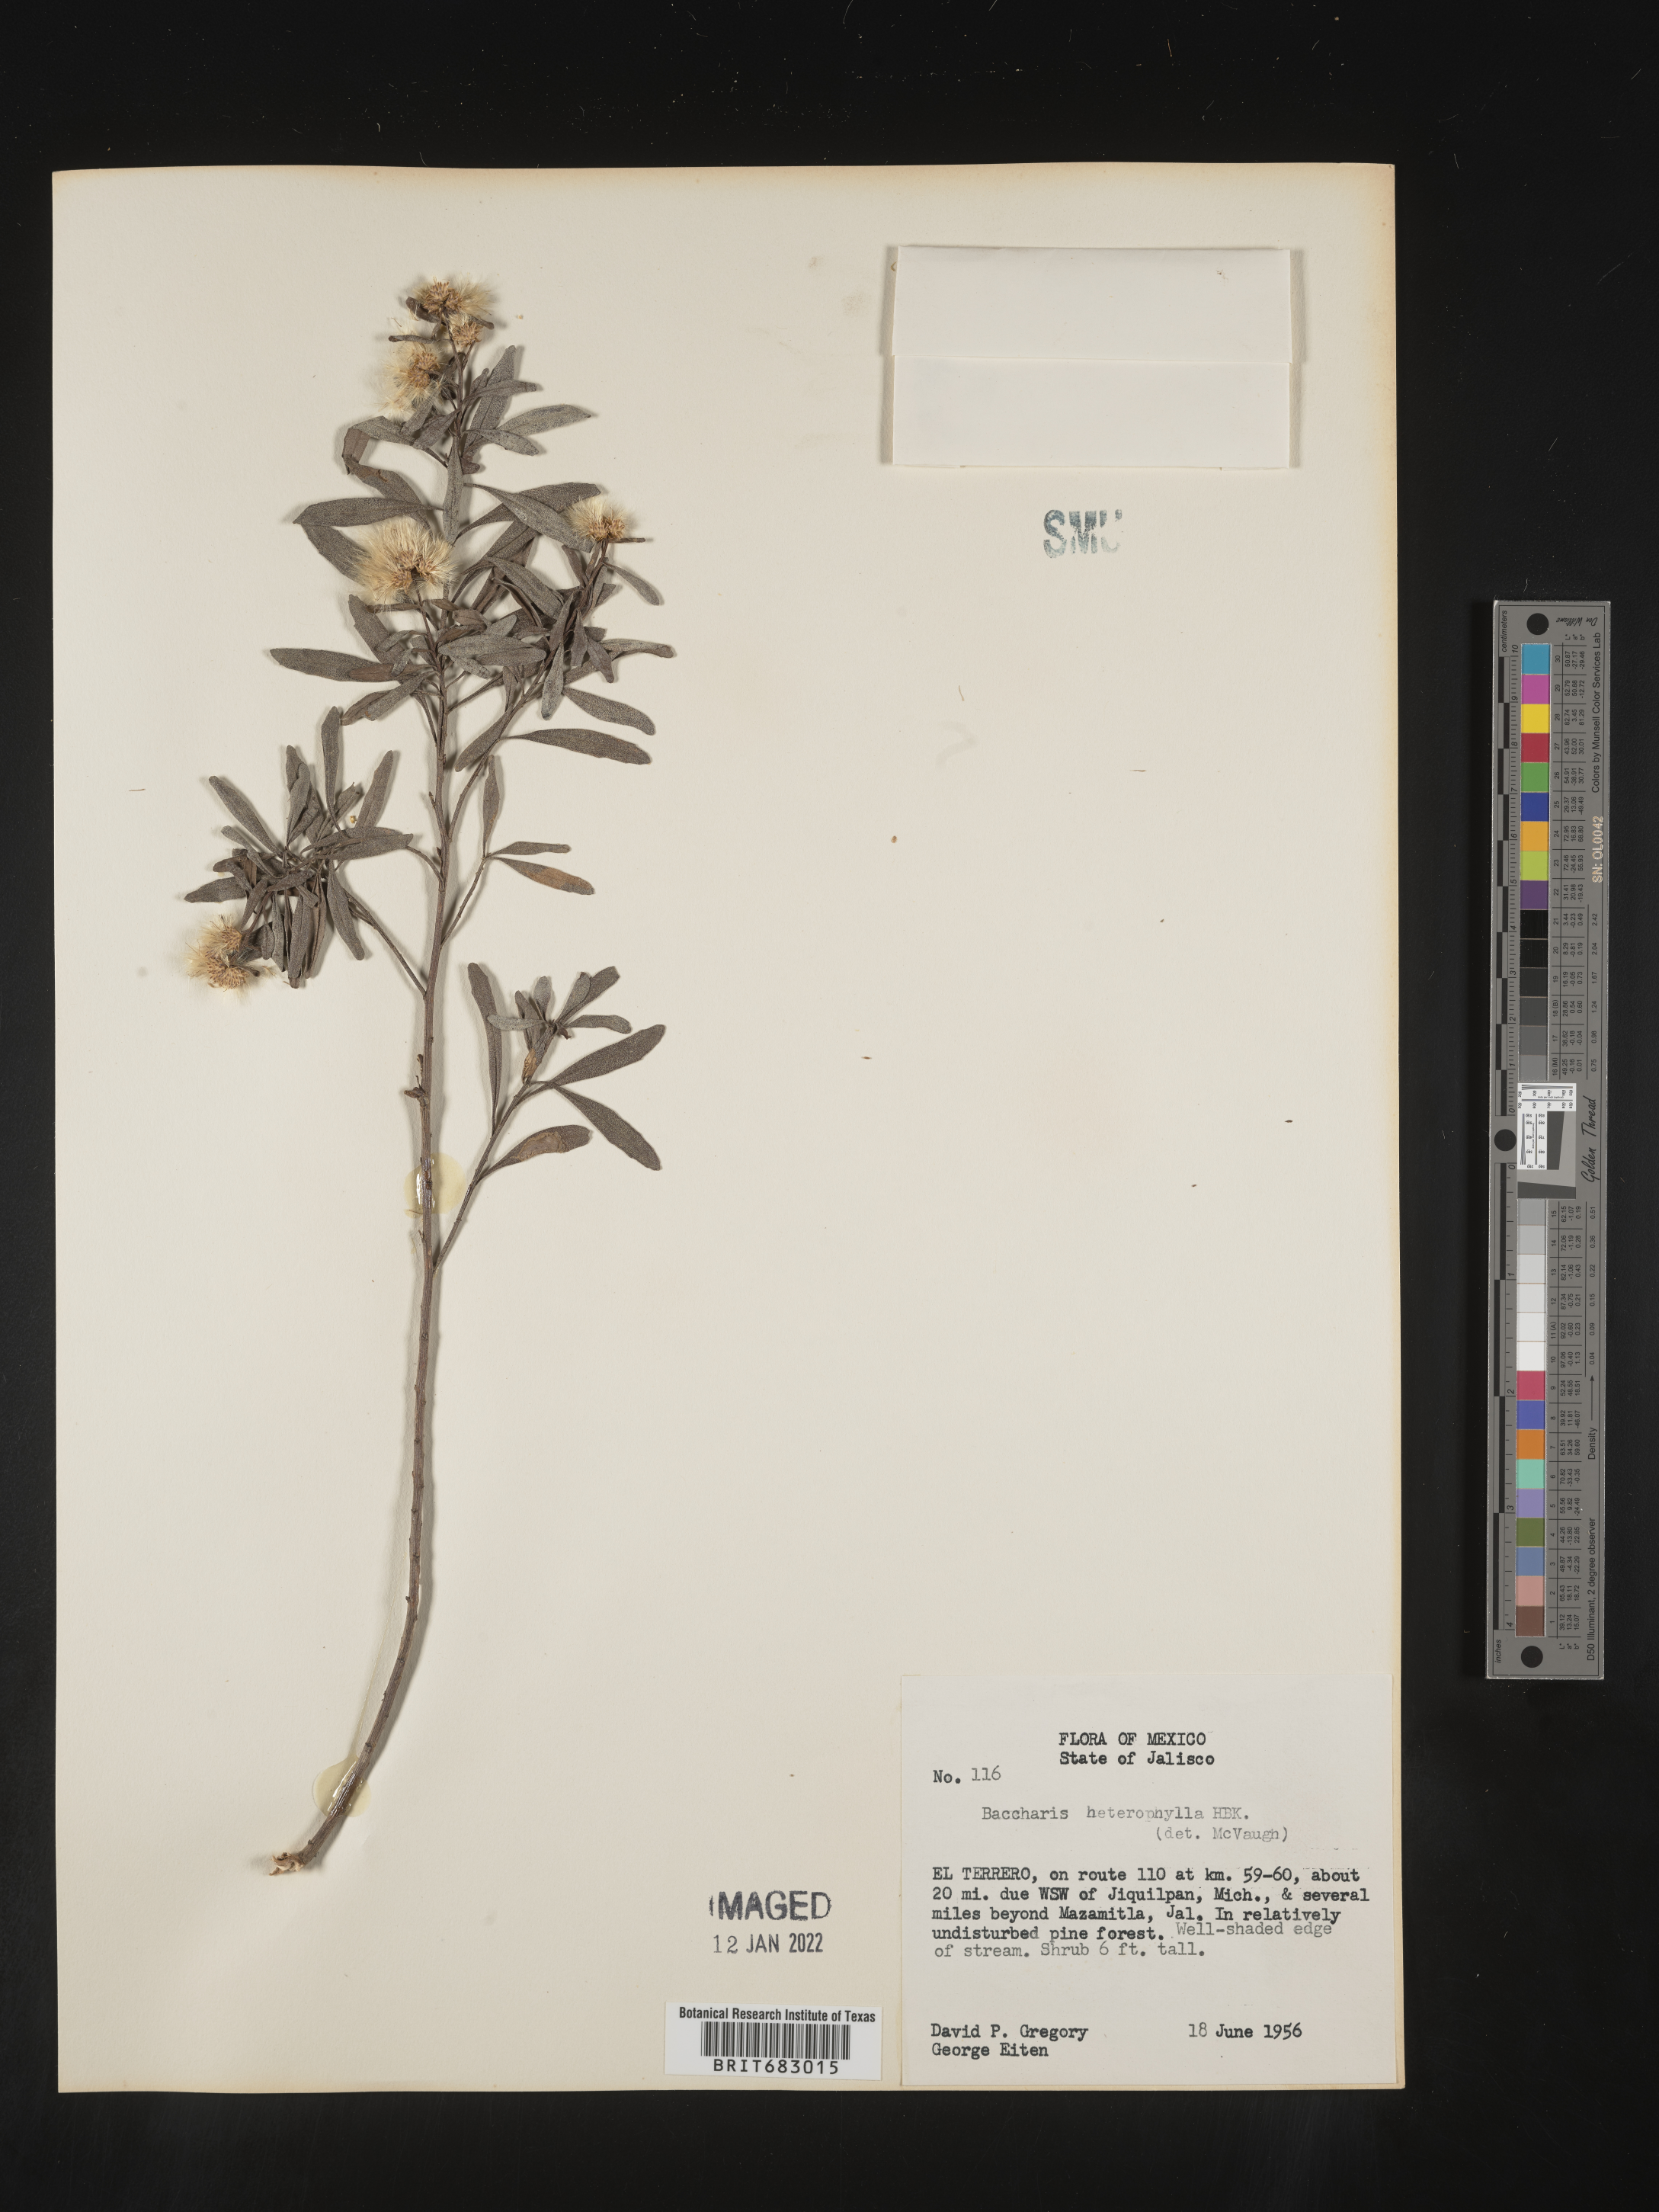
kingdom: Plantae
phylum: Tracheophyta
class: Magnoliopsida
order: Asterales
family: Asteraceae
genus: Baccharis
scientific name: Baccharis microdonta
